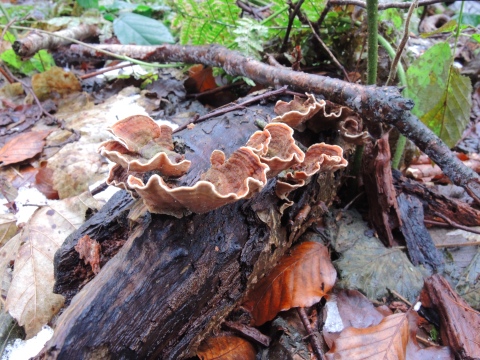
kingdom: Fungi
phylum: Basidiomycota
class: Agaricomycetes
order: Russulales
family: Stereaceae
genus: Stereum
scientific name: Stereum subtomentosum
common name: smuk lædersvamp
